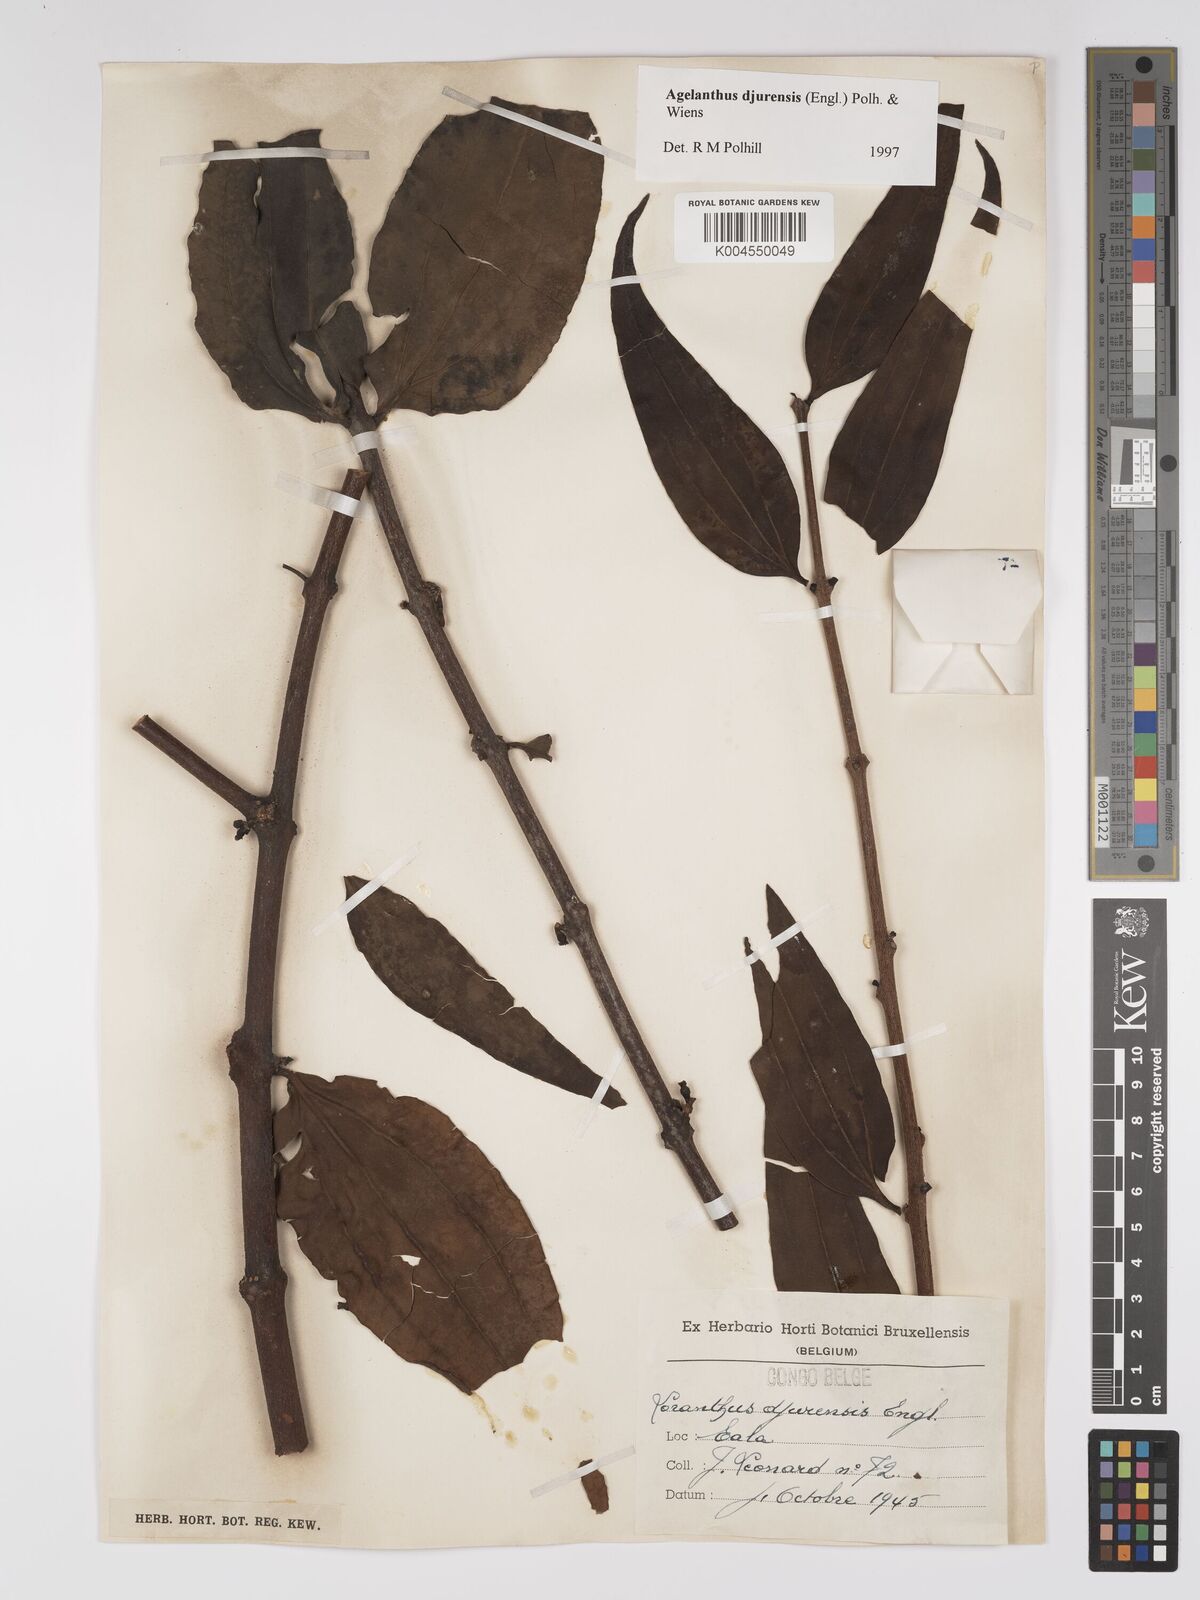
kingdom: Plantae
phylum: Tracheophyta
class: Magnoliopsida
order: Santalales
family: Loranthaceae
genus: Agelanthus
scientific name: Agelanthus djurensis
